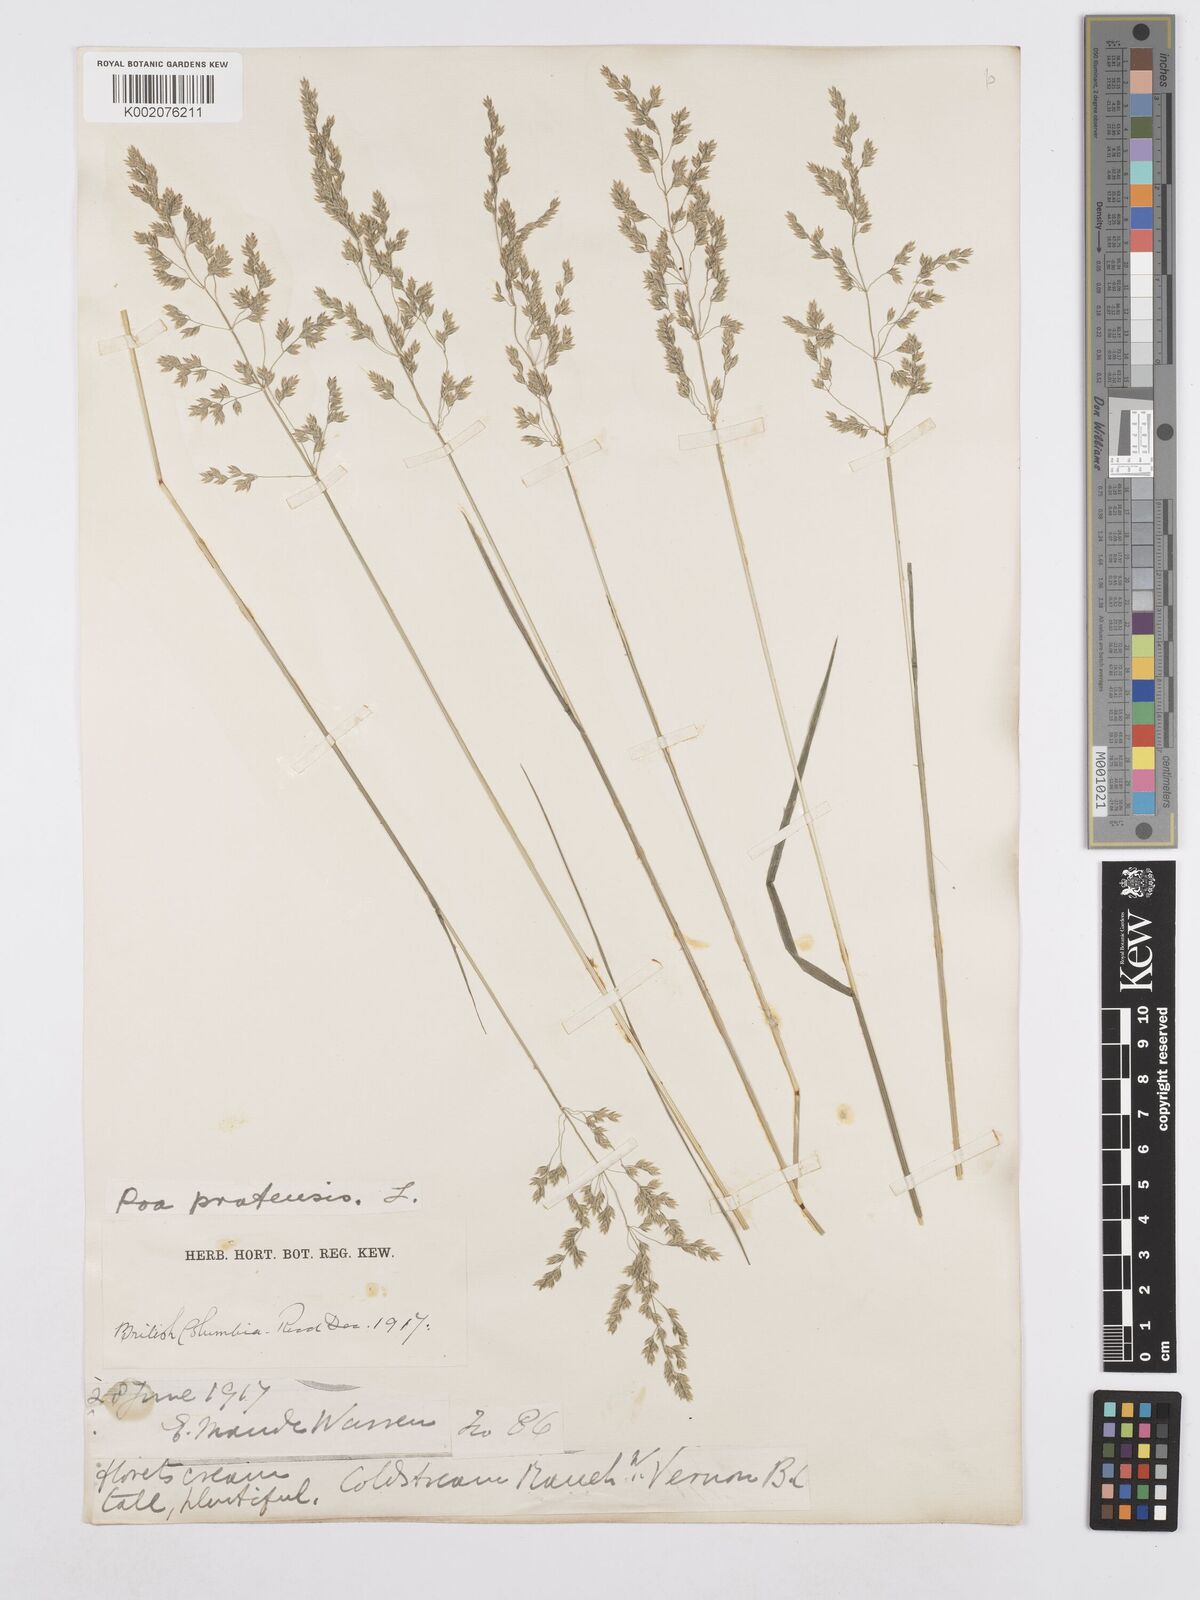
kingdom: Plantae
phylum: Tracheophyta
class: Liliopsida
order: Poales
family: Poaceae
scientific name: Poaceae
